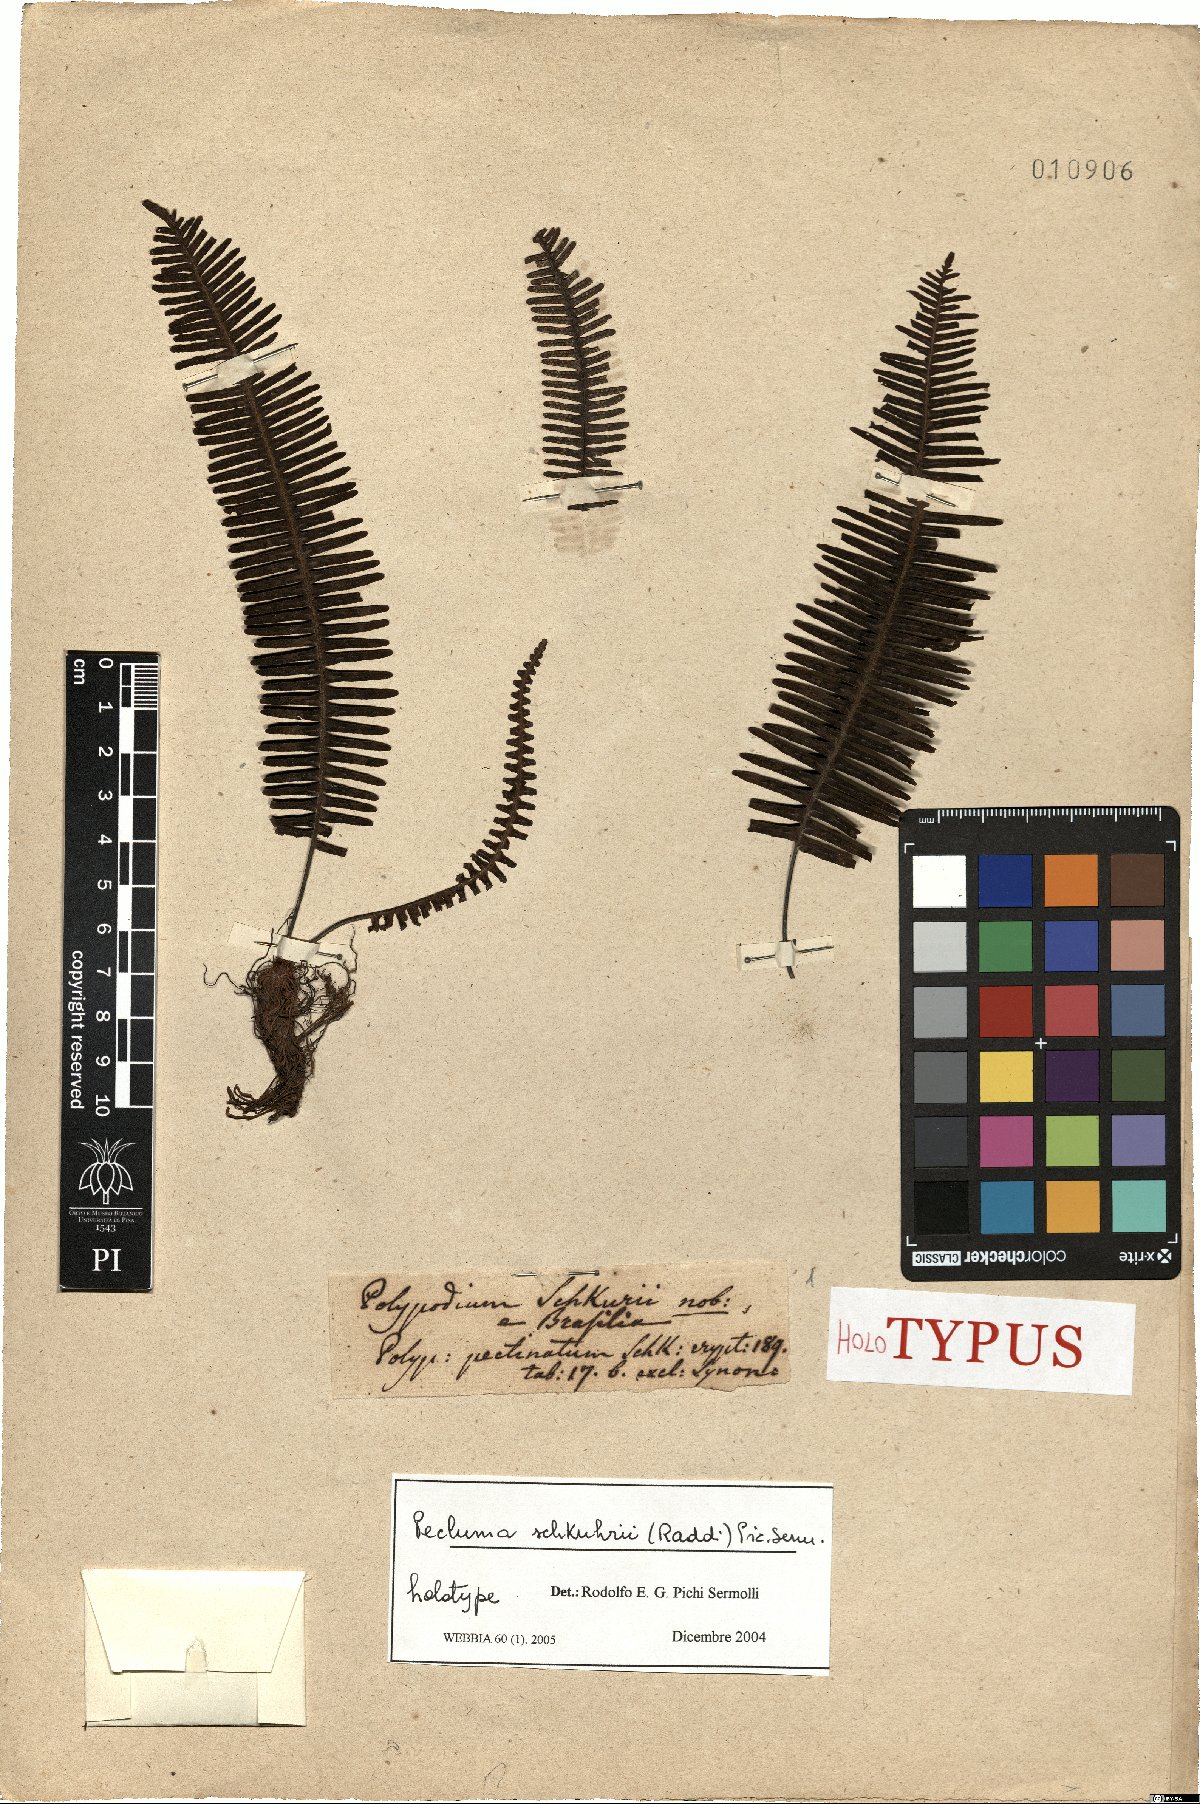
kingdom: Plantae
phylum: Tracheophyta
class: Polypodiopsida
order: Polypodiales
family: Polypodiaceae
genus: Pecluma
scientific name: Pecluma schkuhrii
